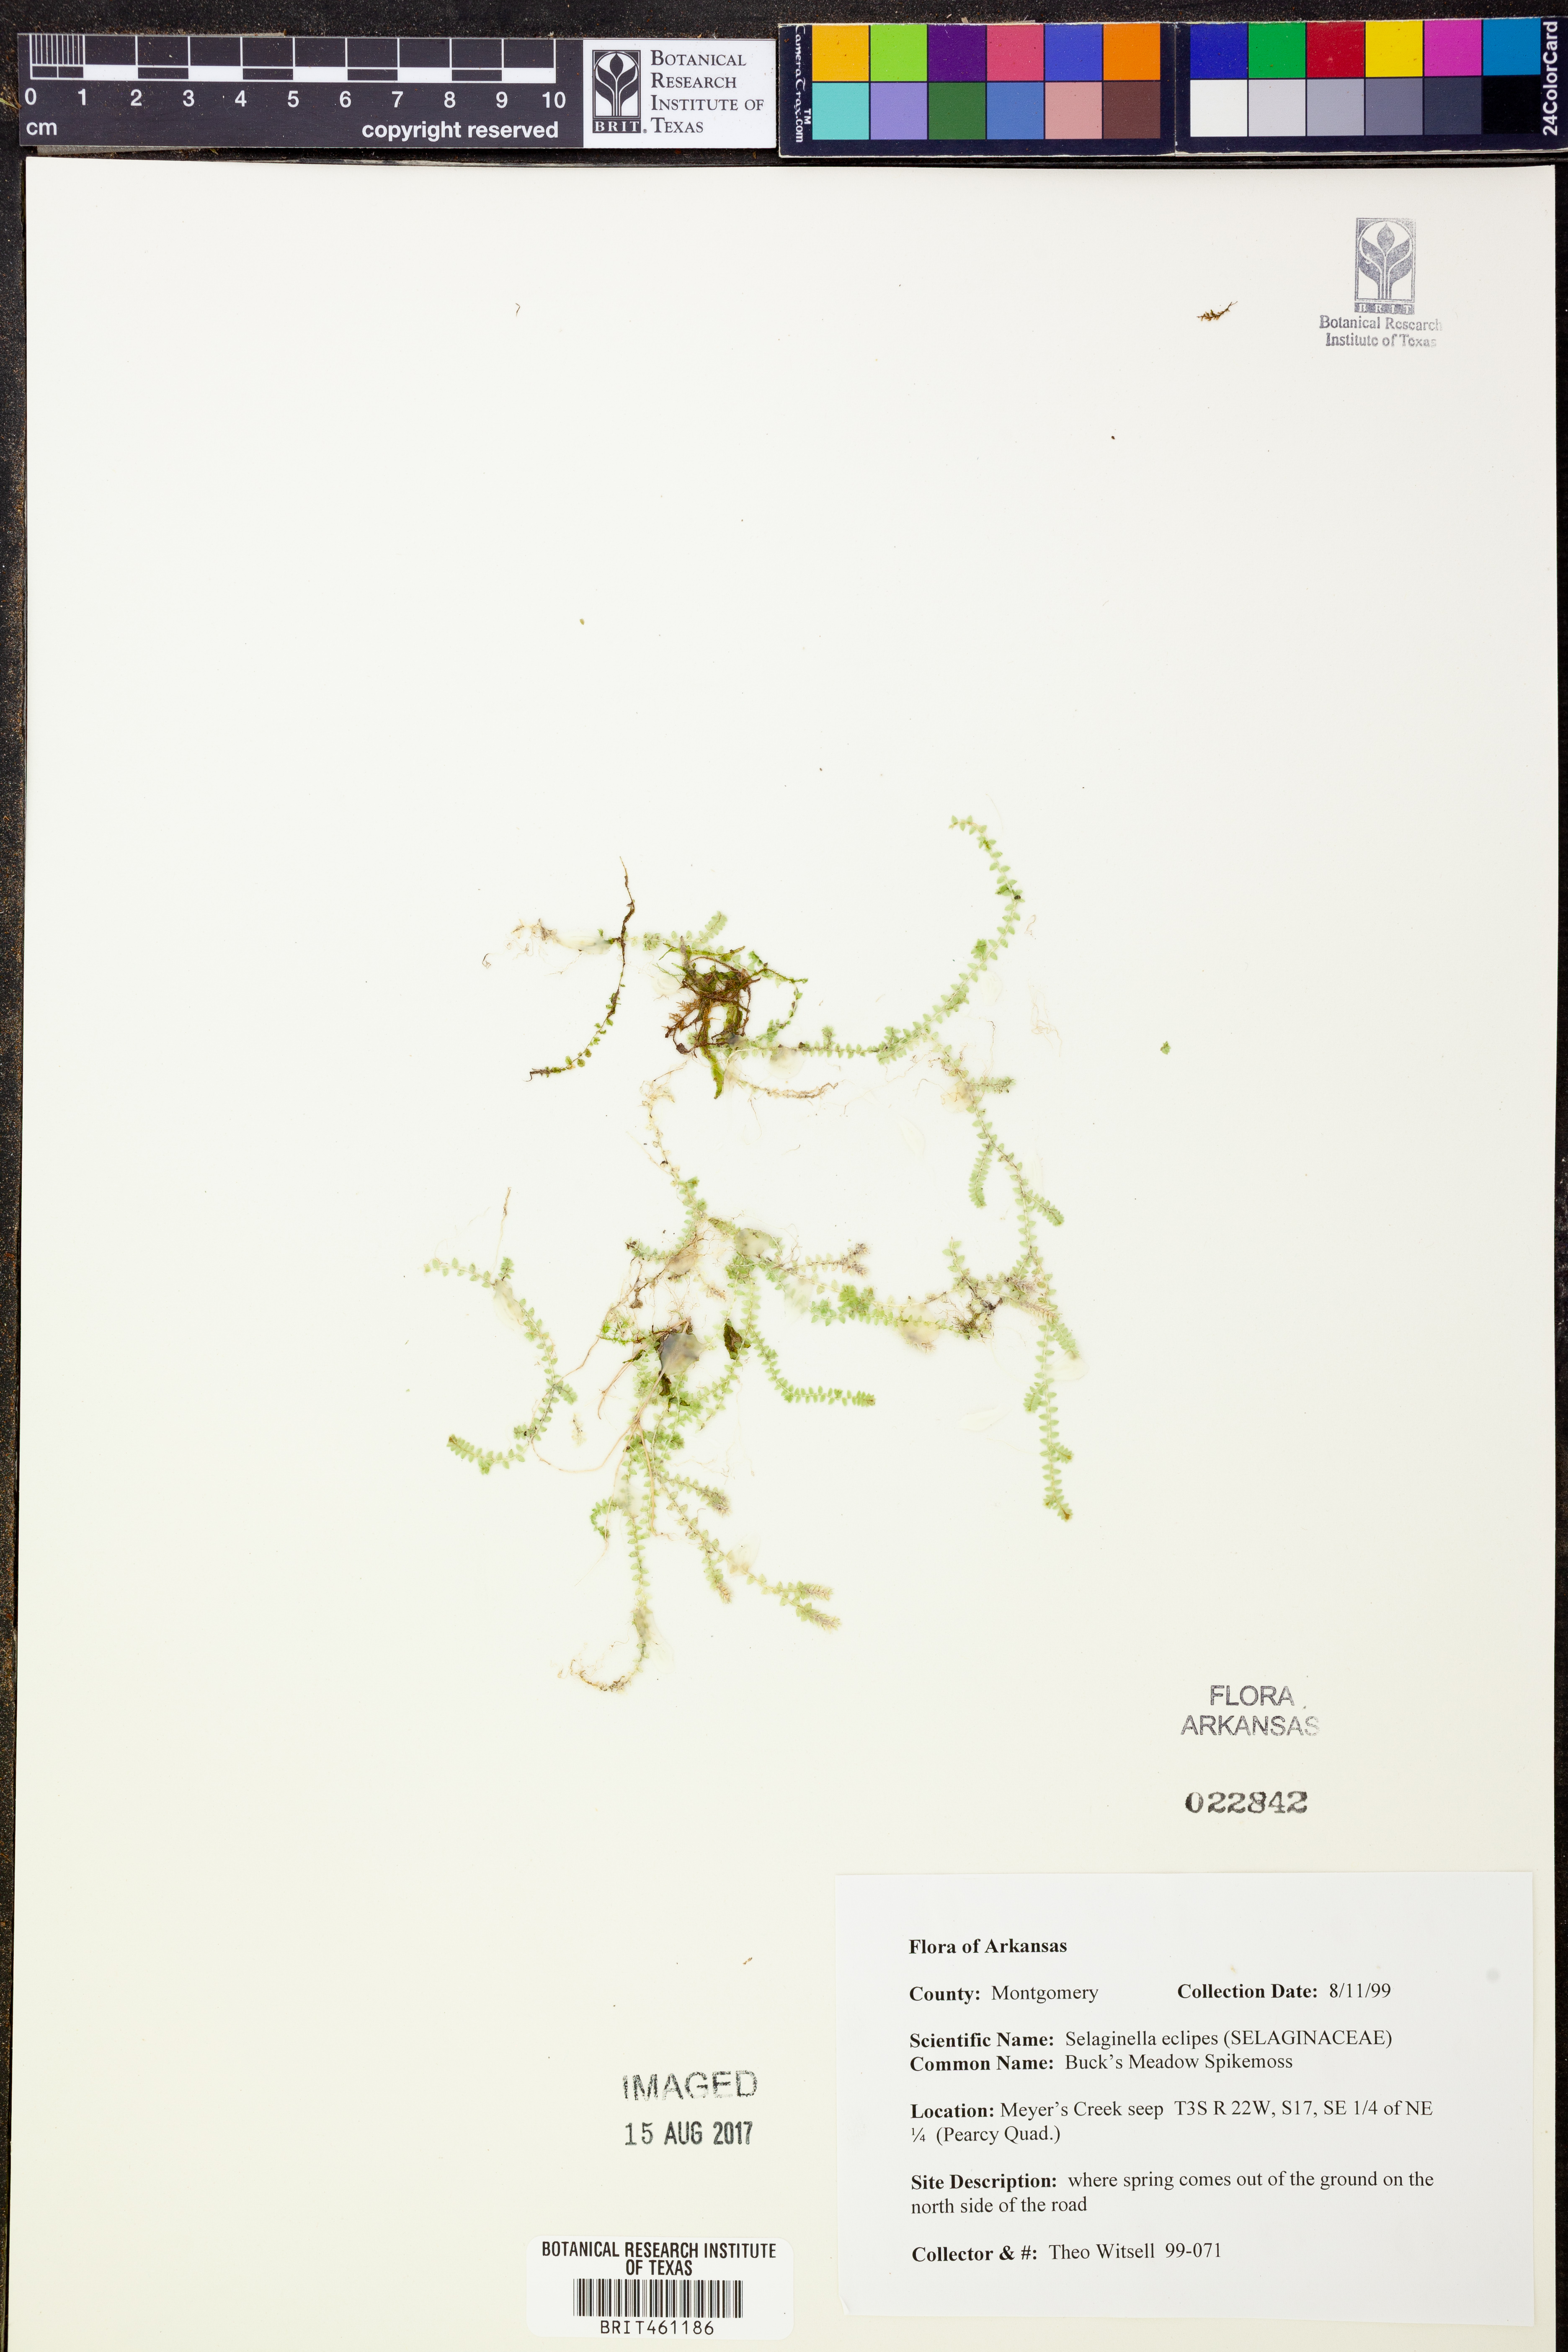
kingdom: Plantae
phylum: Tracheophyta
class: Lycopodiopsida
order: Selaginellales
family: Selaginellaceae
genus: Selaginella
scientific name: Selaginella eclipes
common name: Buck's meadow spikemoss
